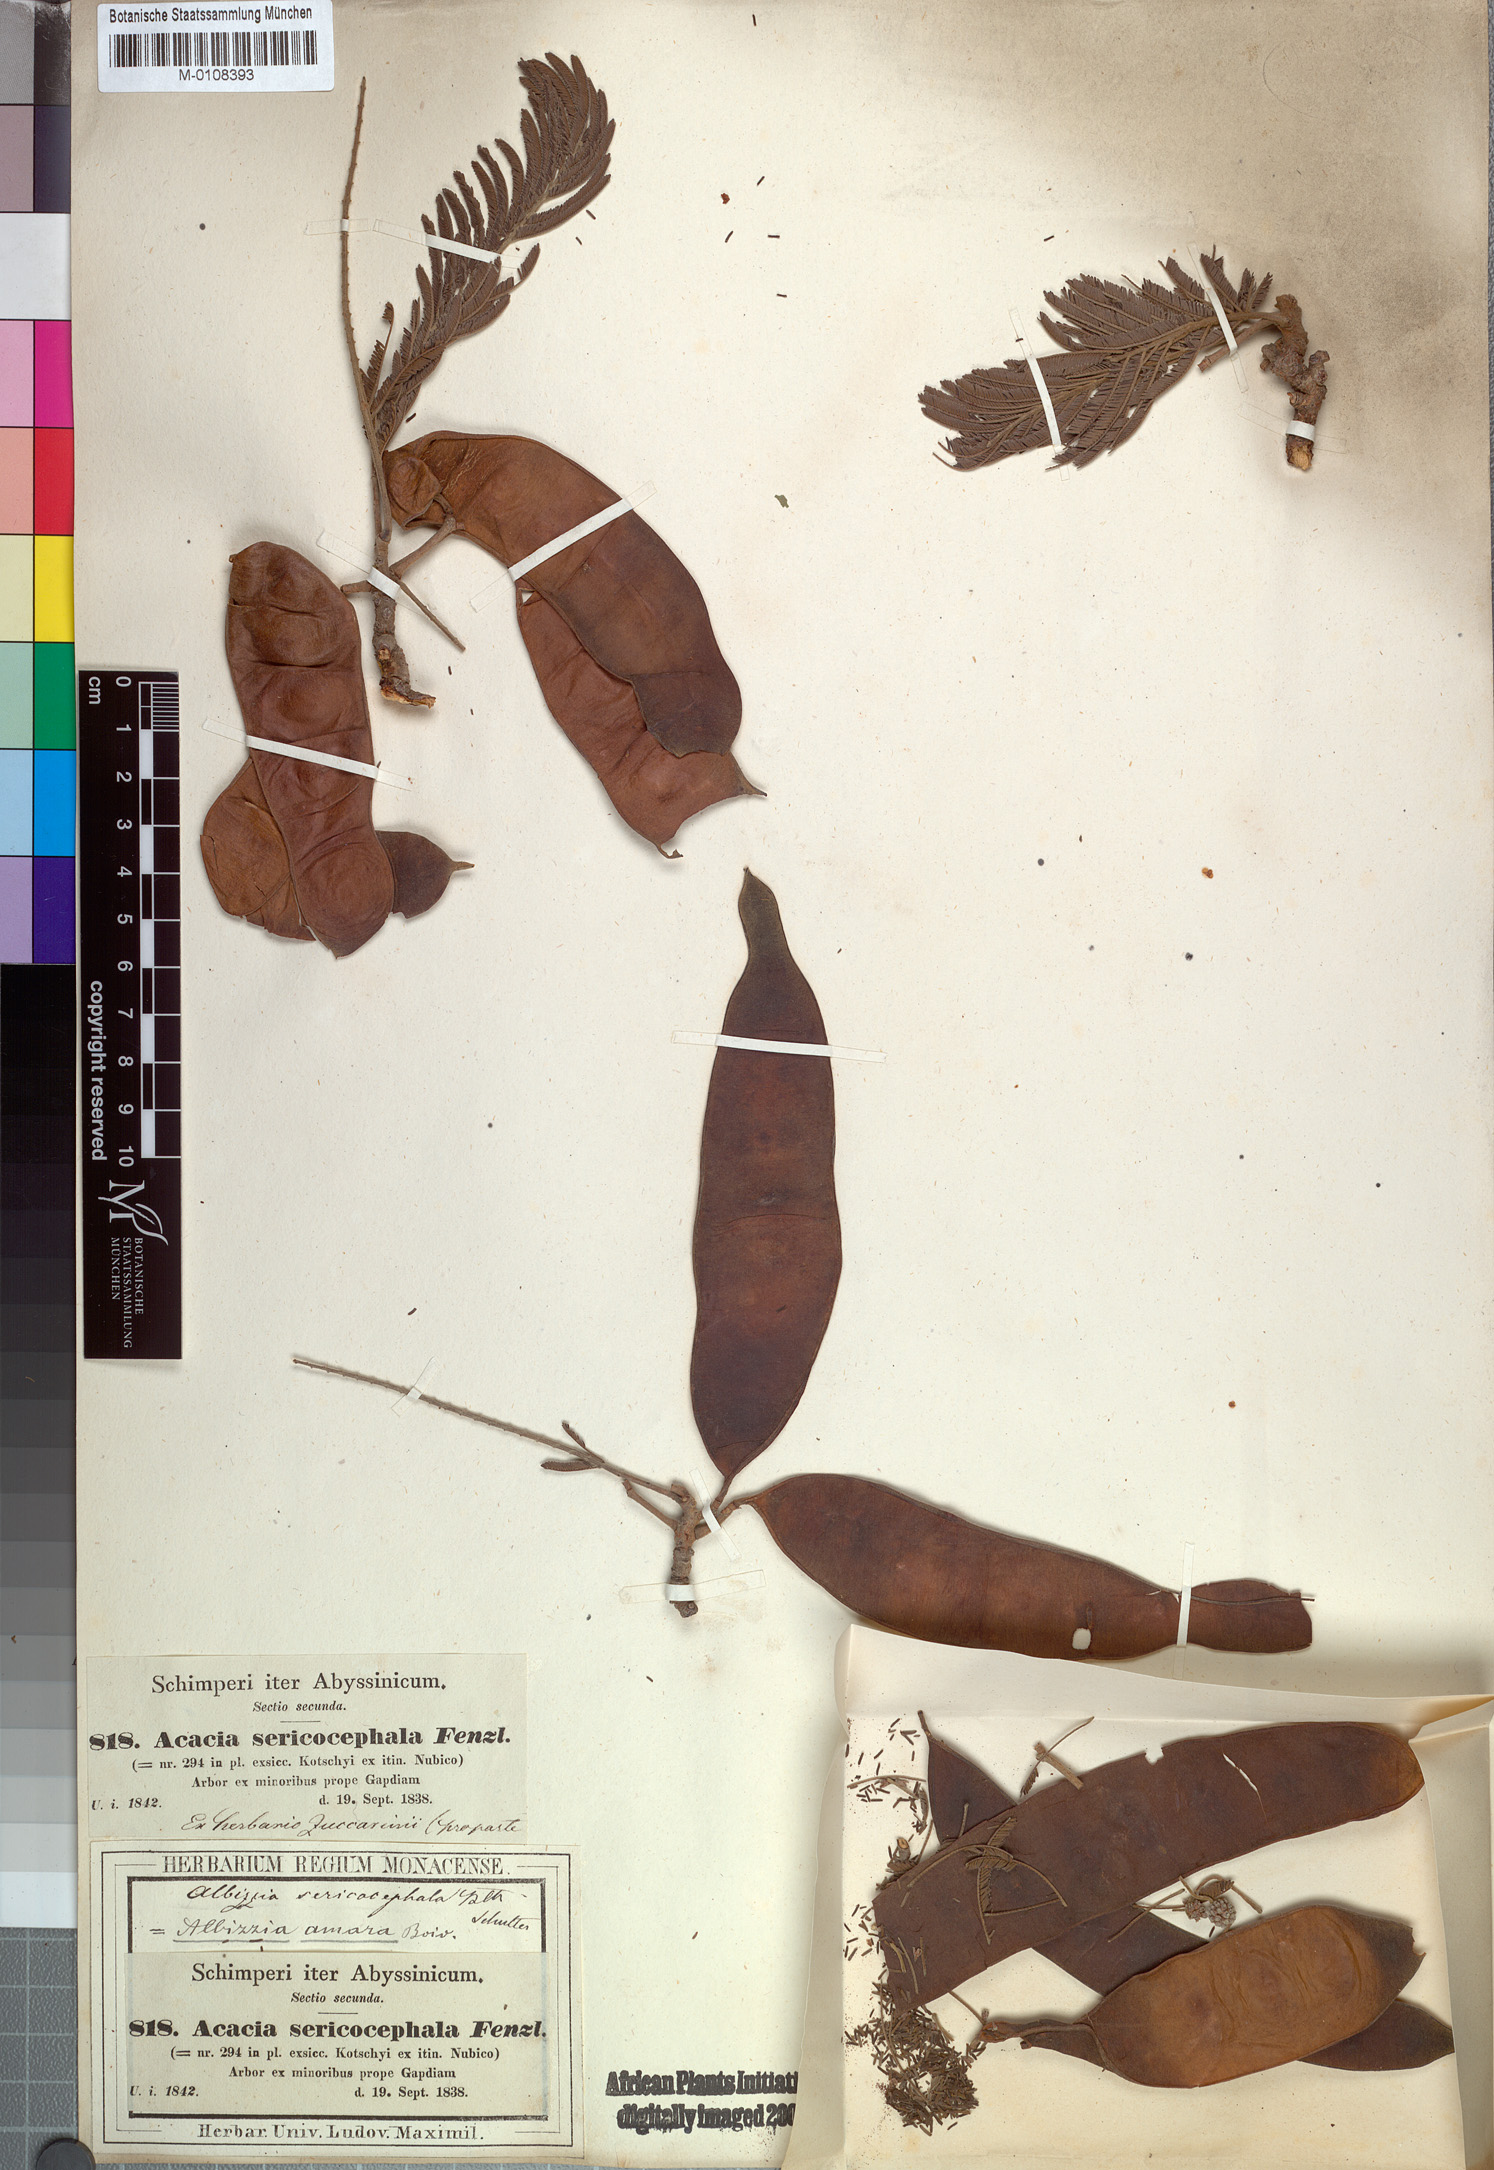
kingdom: Plantae
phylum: Tracheophyta
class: Magnoliopsida
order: Fabales
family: Fabaceae
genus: Albizia
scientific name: Albizia amara
